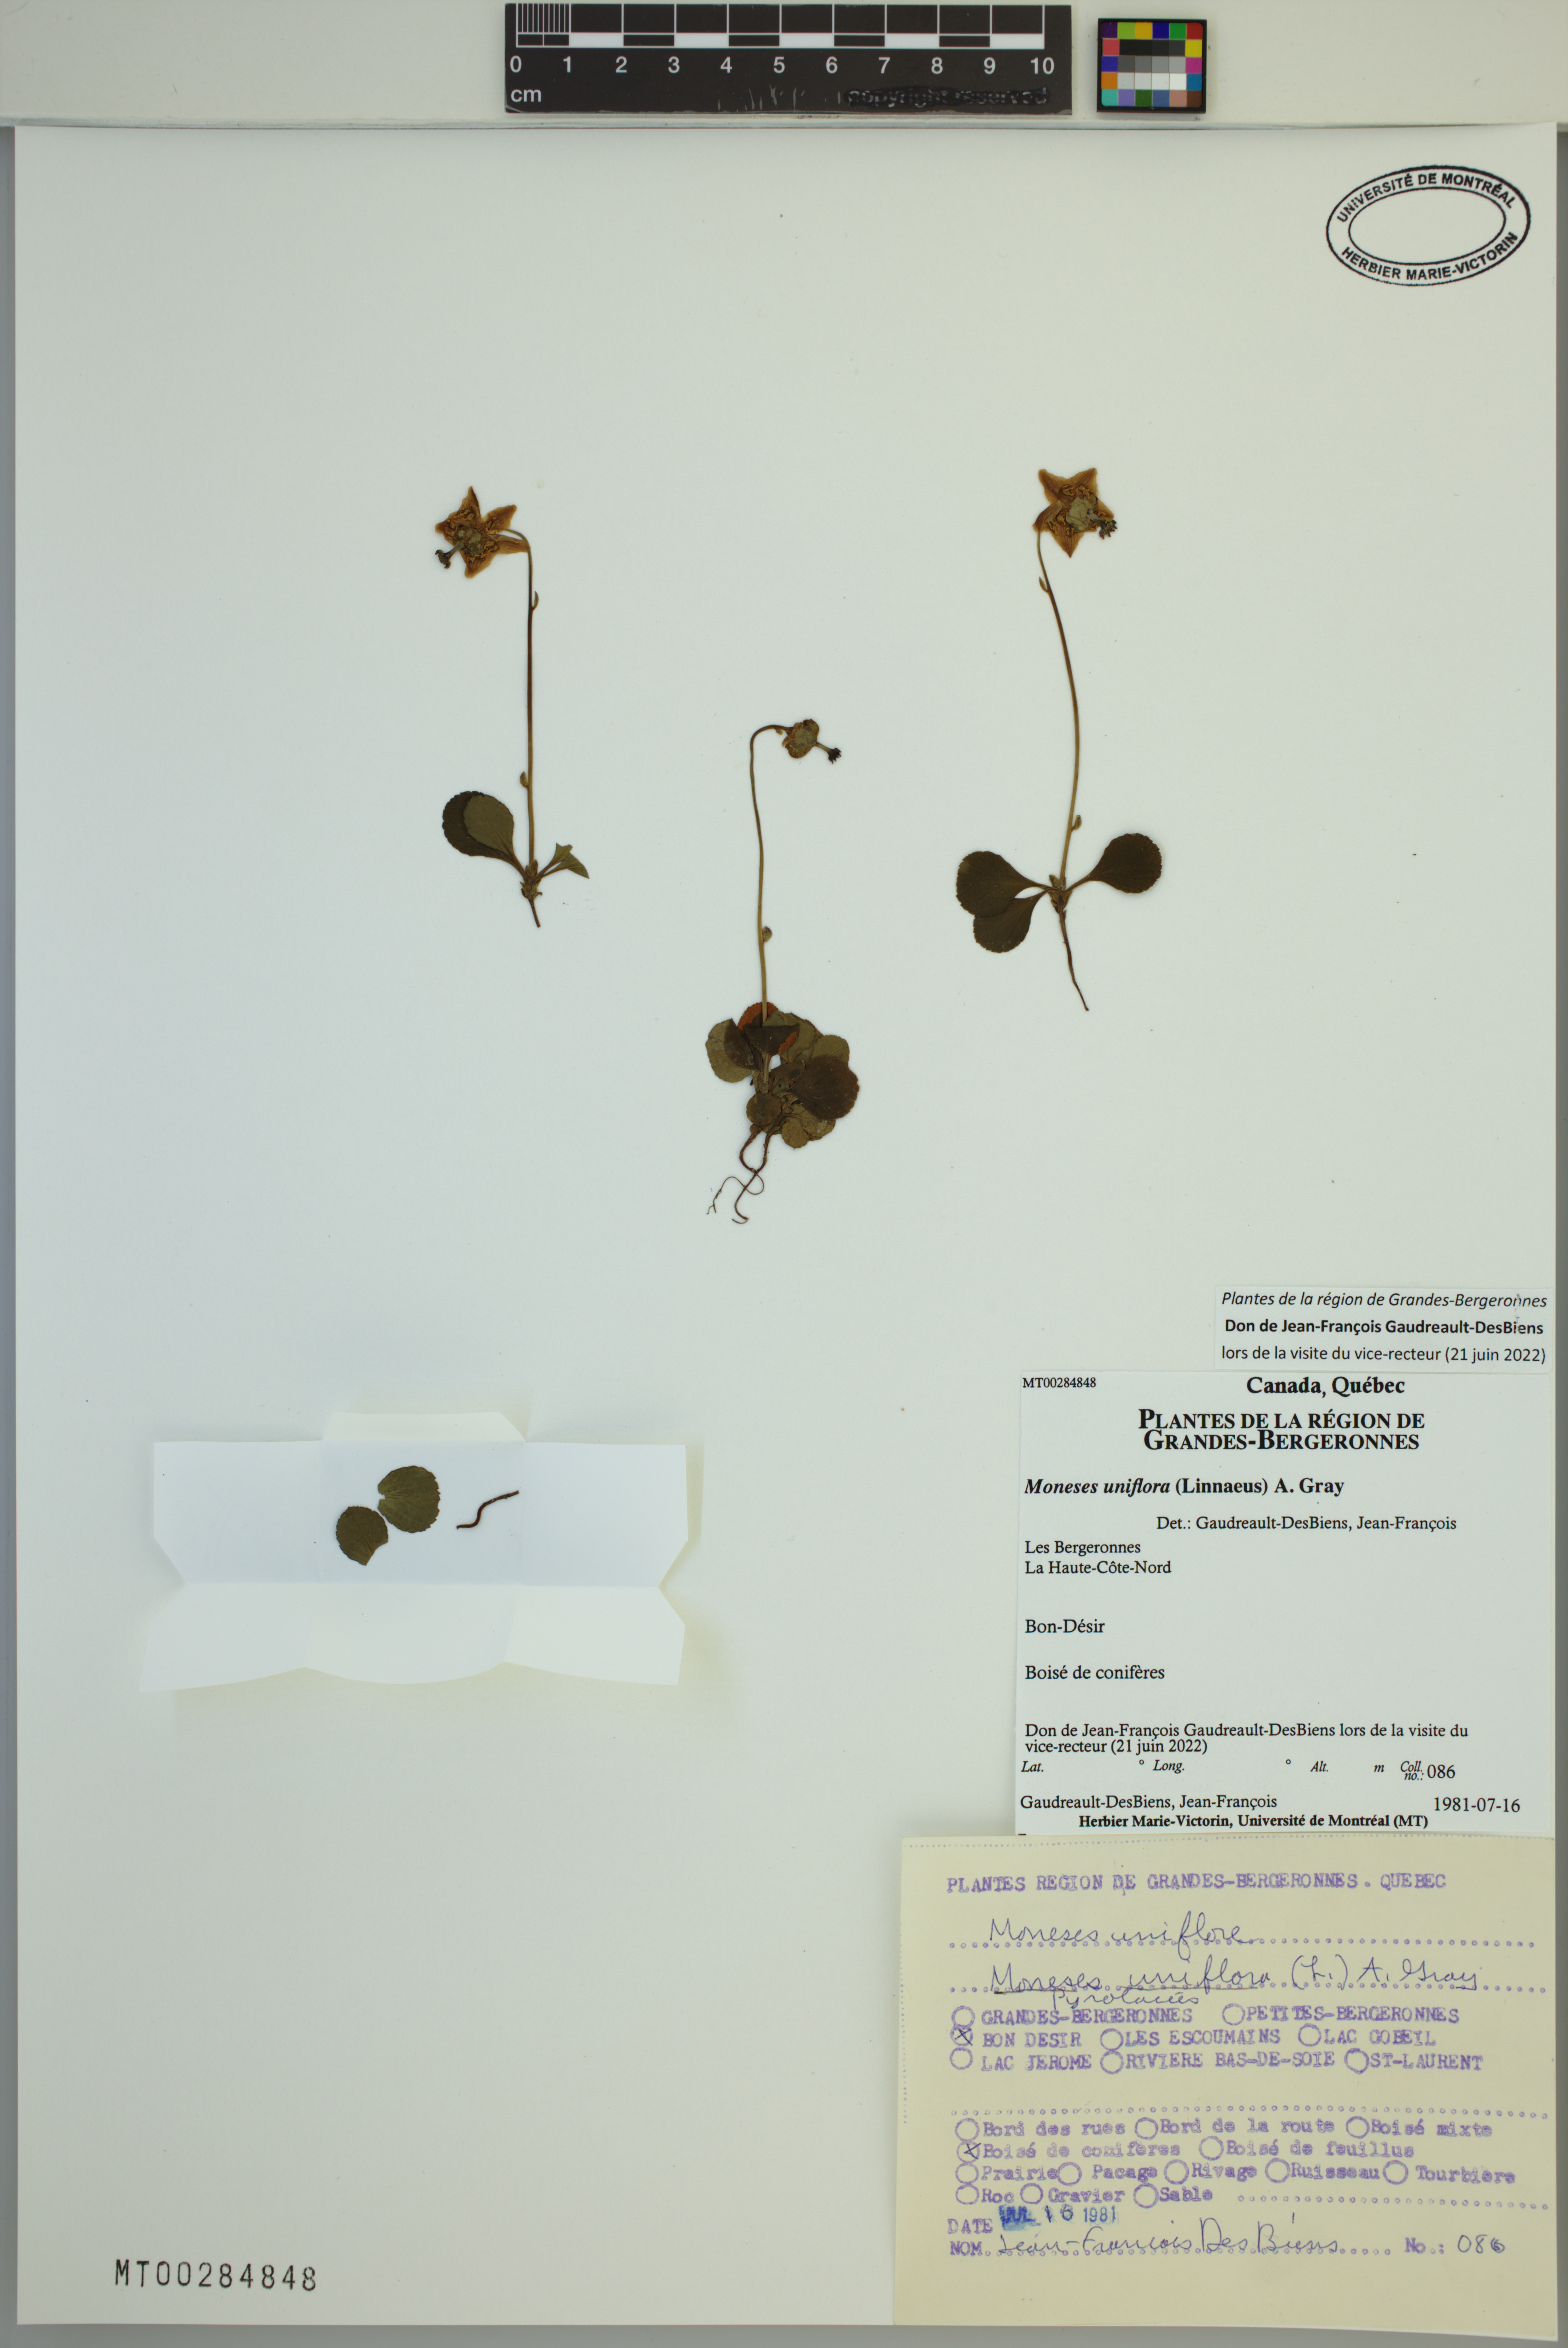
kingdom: Plantae
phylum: Tracheophyta
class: Magnoliopsida
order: Ericales
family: Ericaceae
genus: Moneses
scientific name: Moneses uniflora
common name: One-flowered wintergreen
